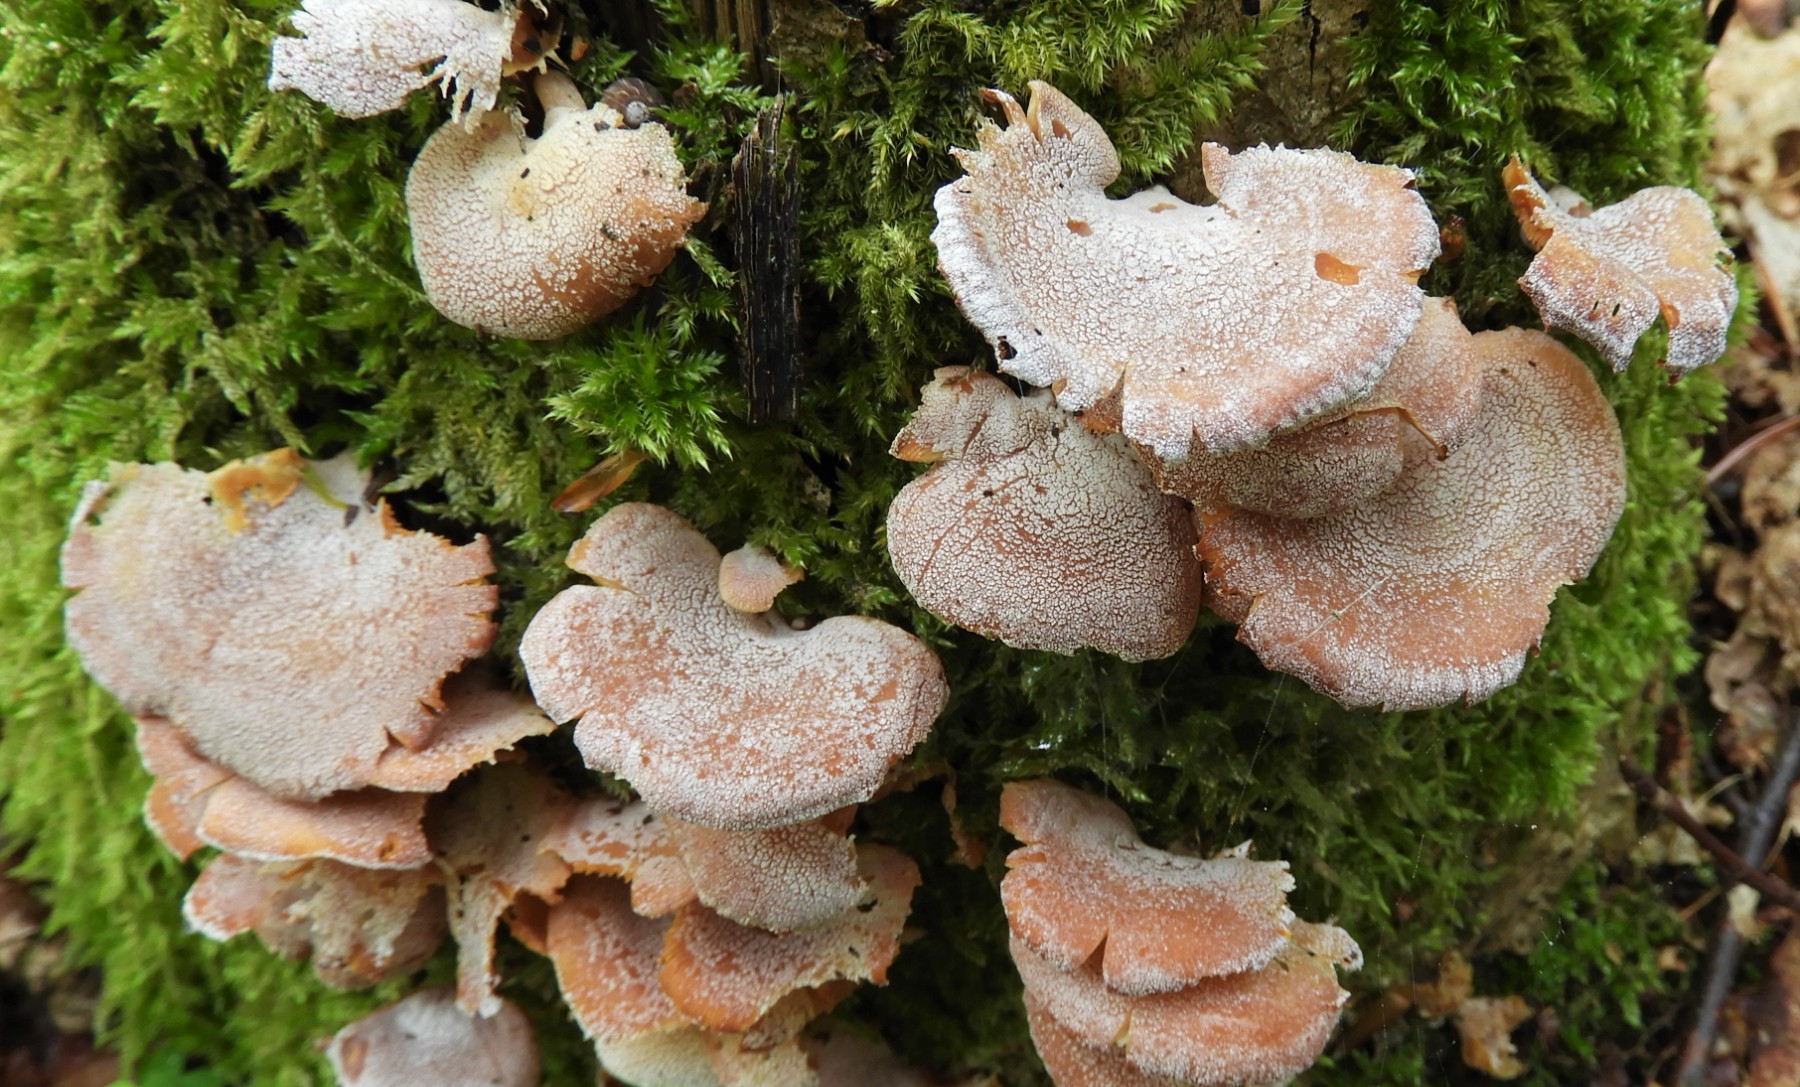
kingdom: Fungi
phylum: Basidiomycota
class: Agaricomycetes
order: Agaricales
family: Mycenaceae
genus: Panellus
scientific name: Panellus stipticus
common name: kliddet epaulethat
